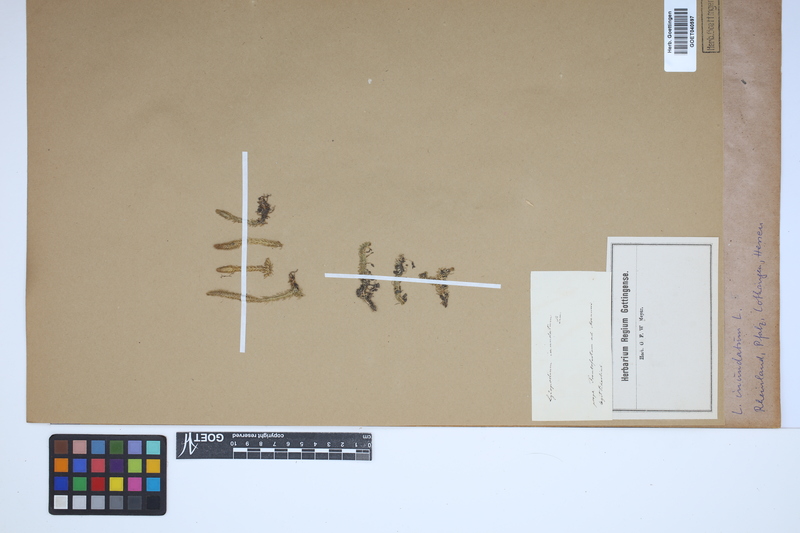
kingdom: Plantae
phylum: Tracheophyta
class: Lycopodiopsida
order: Lycopodiales
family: Lycopodiaceae
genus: Lycopodiella
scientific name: Lycopodiella inundata
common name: Marsh clubmoss
